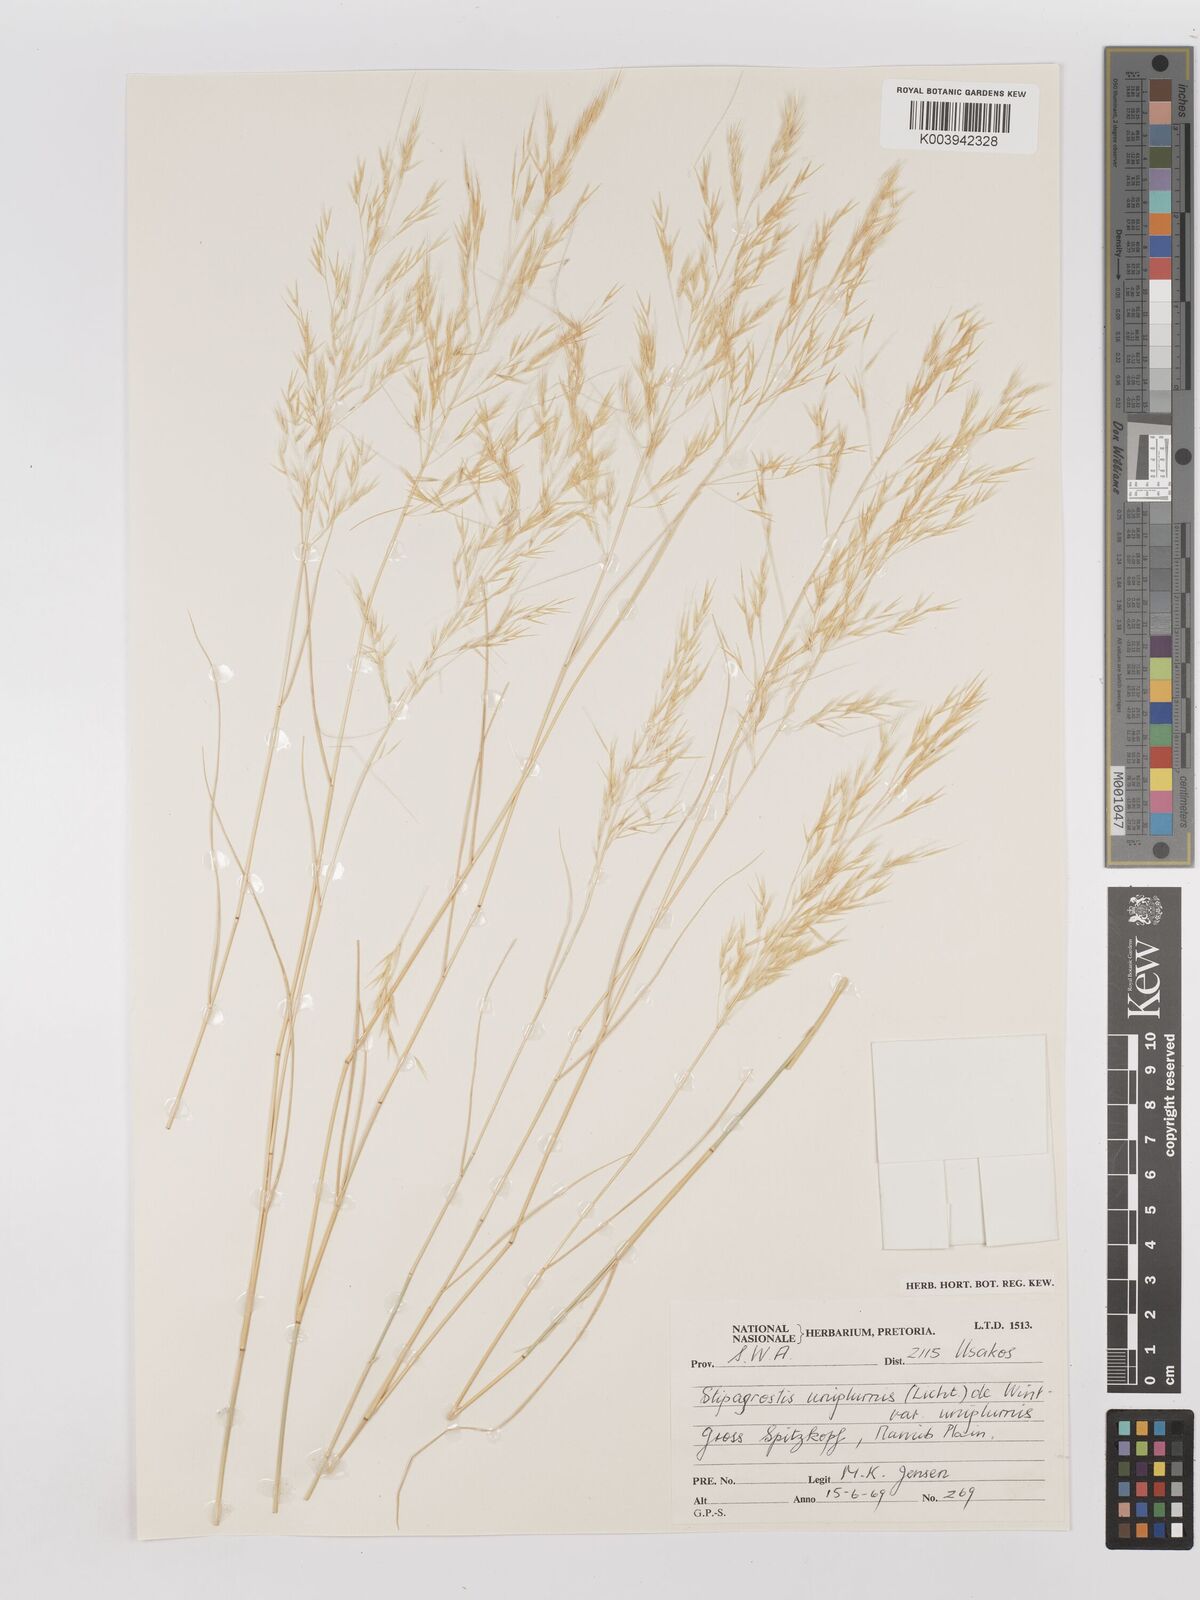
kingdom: Plantae
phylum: Tracheophyta
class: Liliopsida
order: Poales
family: Poaceae
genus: Stipagrostis
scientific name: Stipagrostis uniplumis
